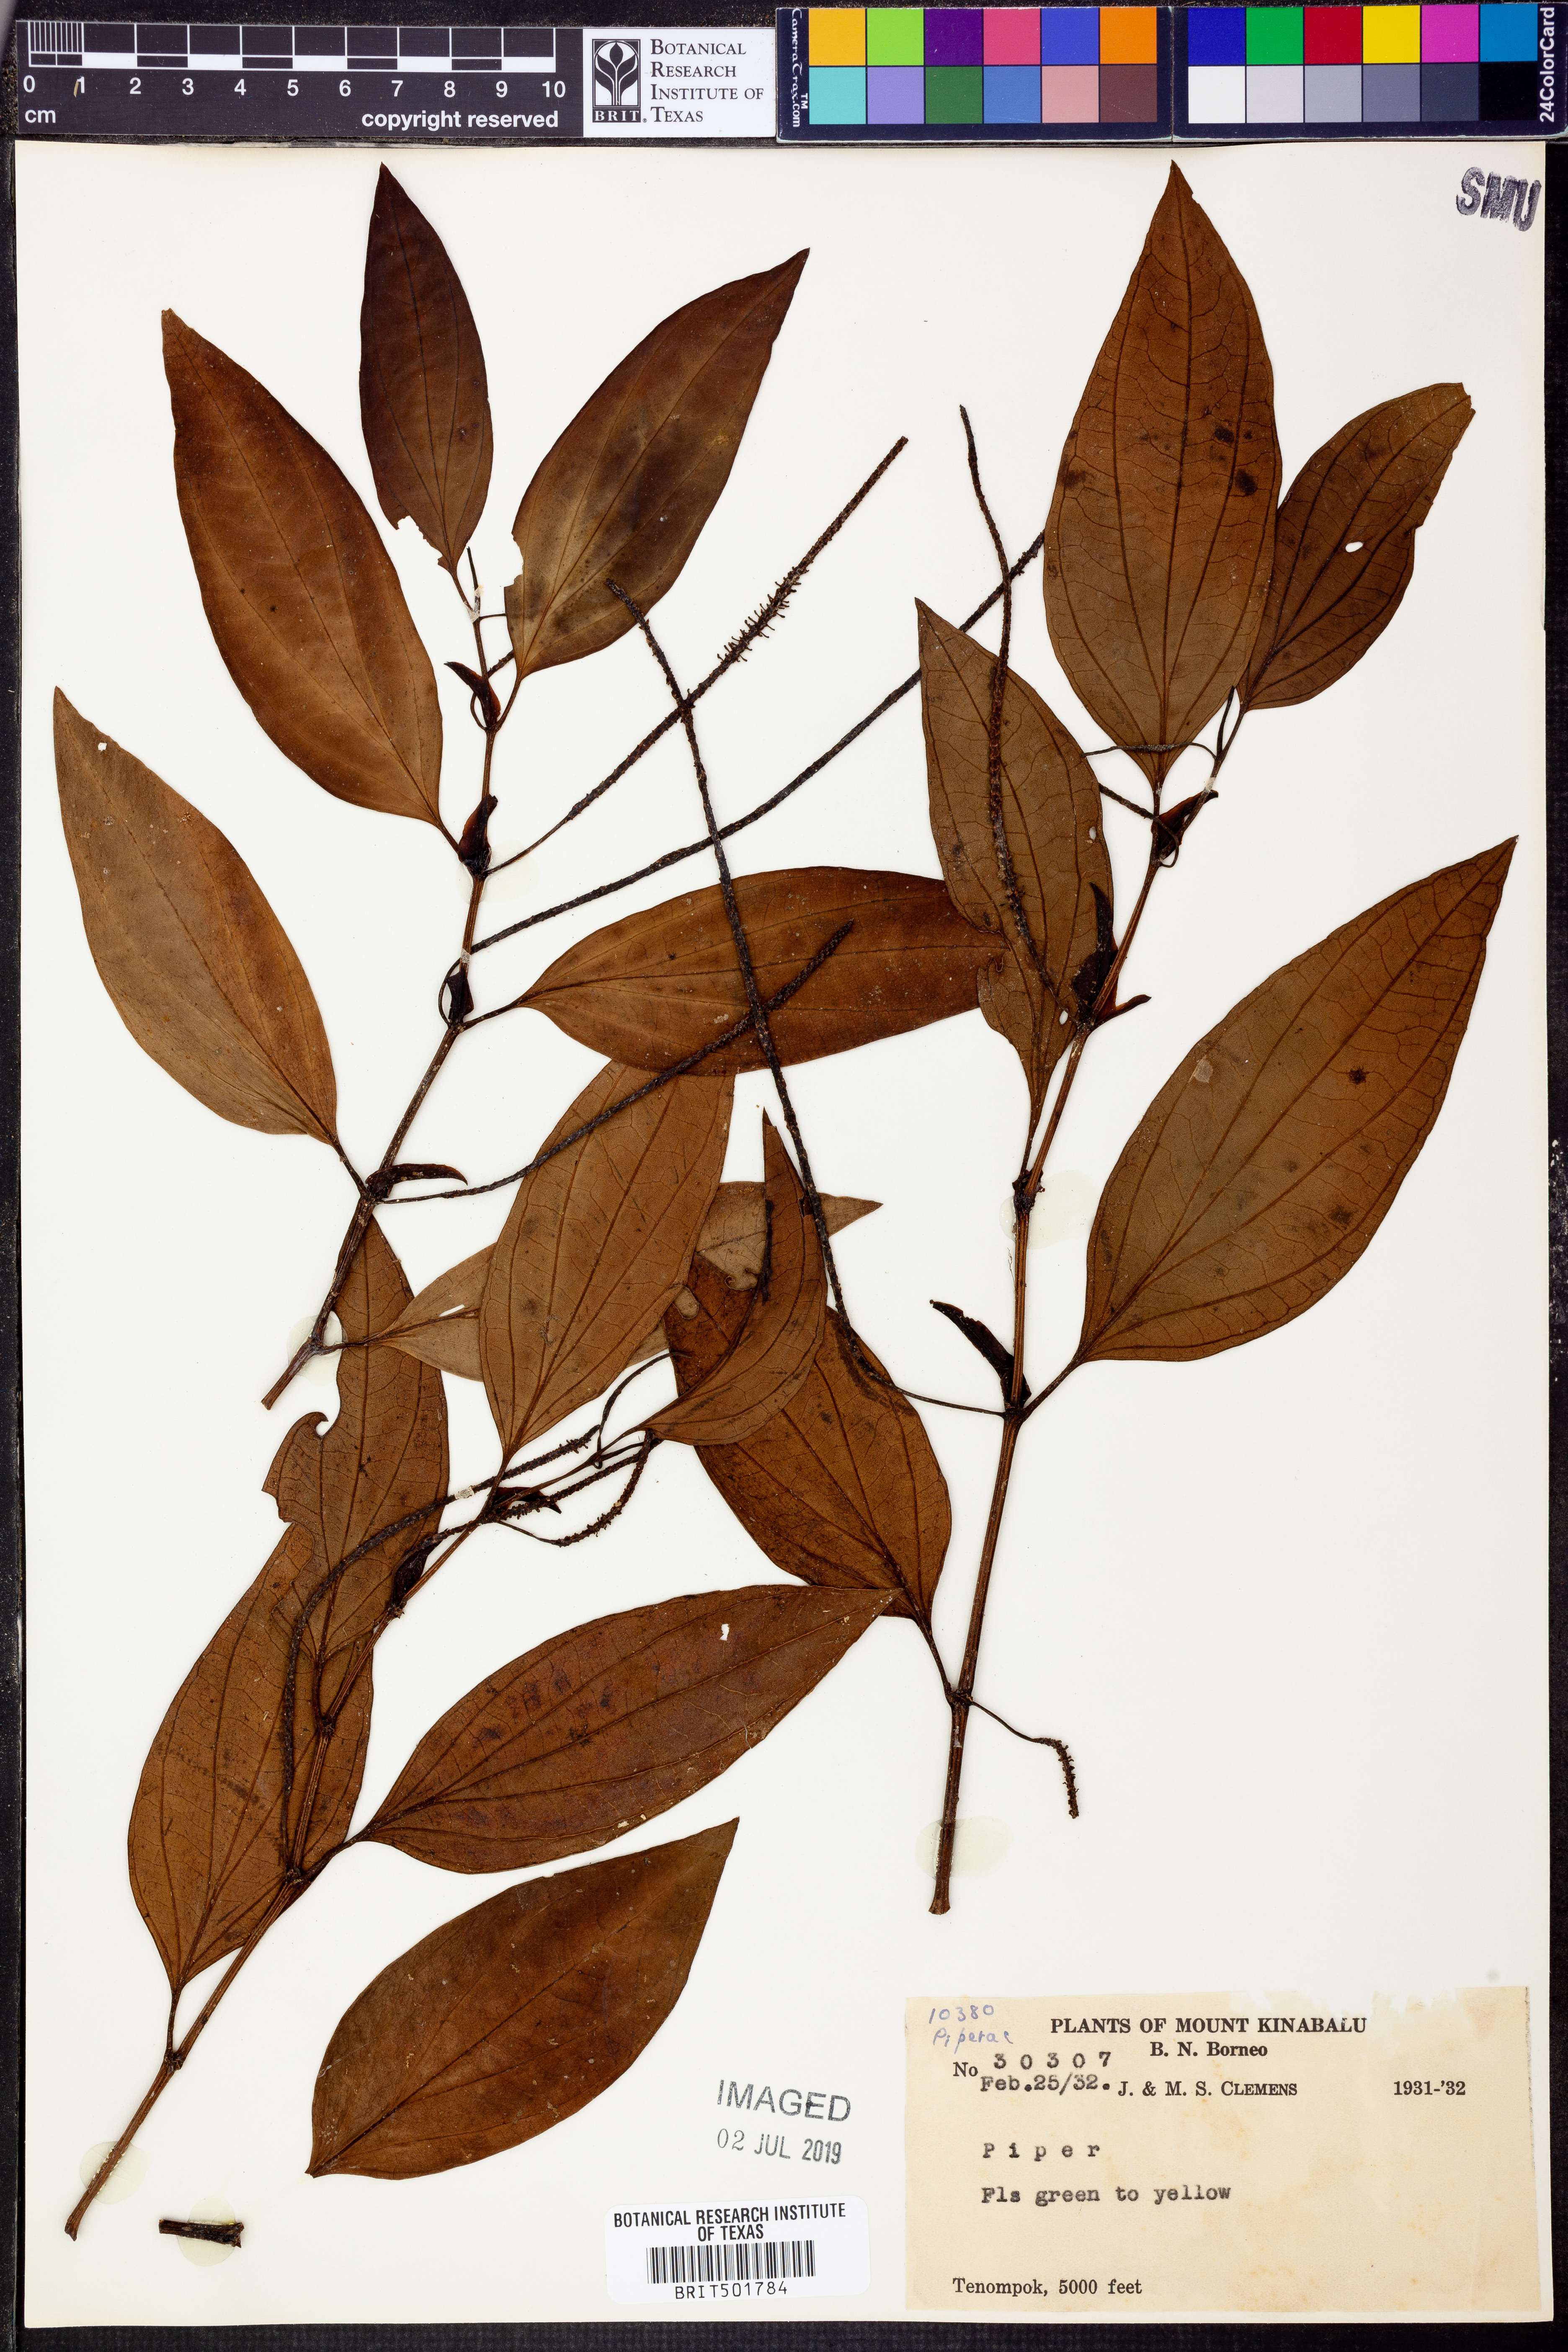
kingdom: Plantae
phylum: Tracheophyta
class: Magnoliopsida
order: Piperales
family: Piperaceae
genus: Piper
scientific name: Piper
